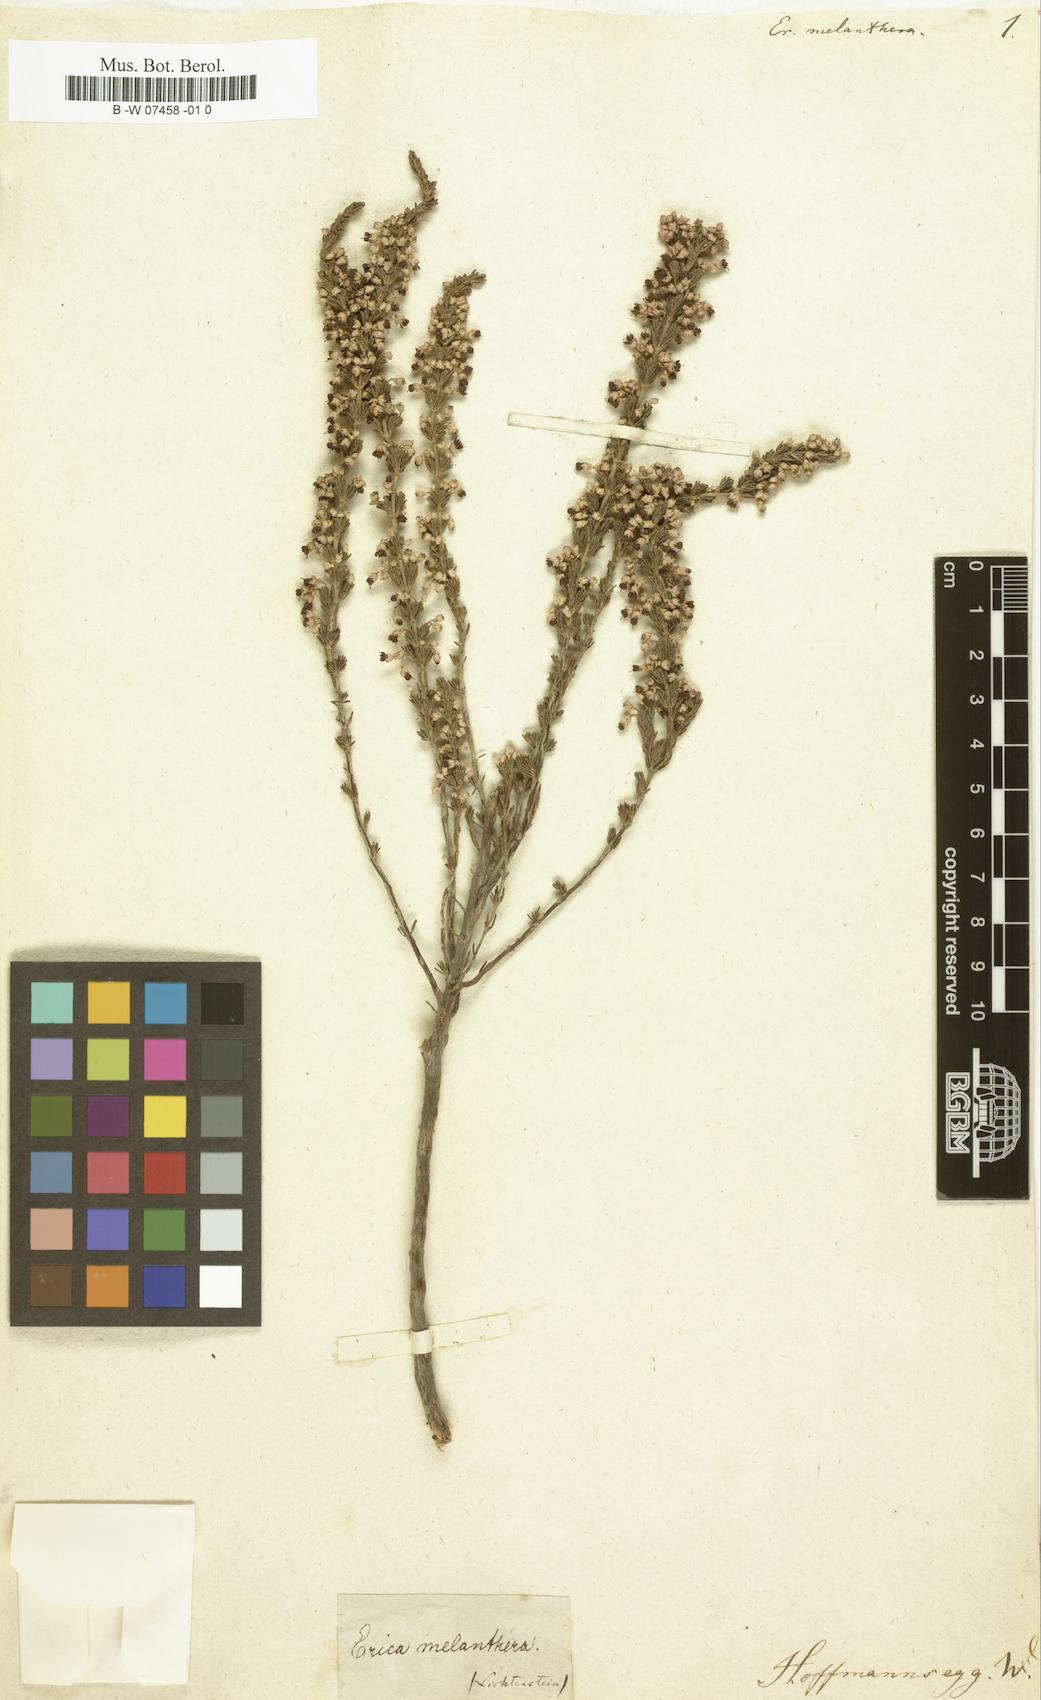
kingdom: Plantae
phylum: Tracheophyta
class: Magnoliopsida
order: Ericales
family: Ericaceae
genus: Erica
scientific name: Erica melanthera
